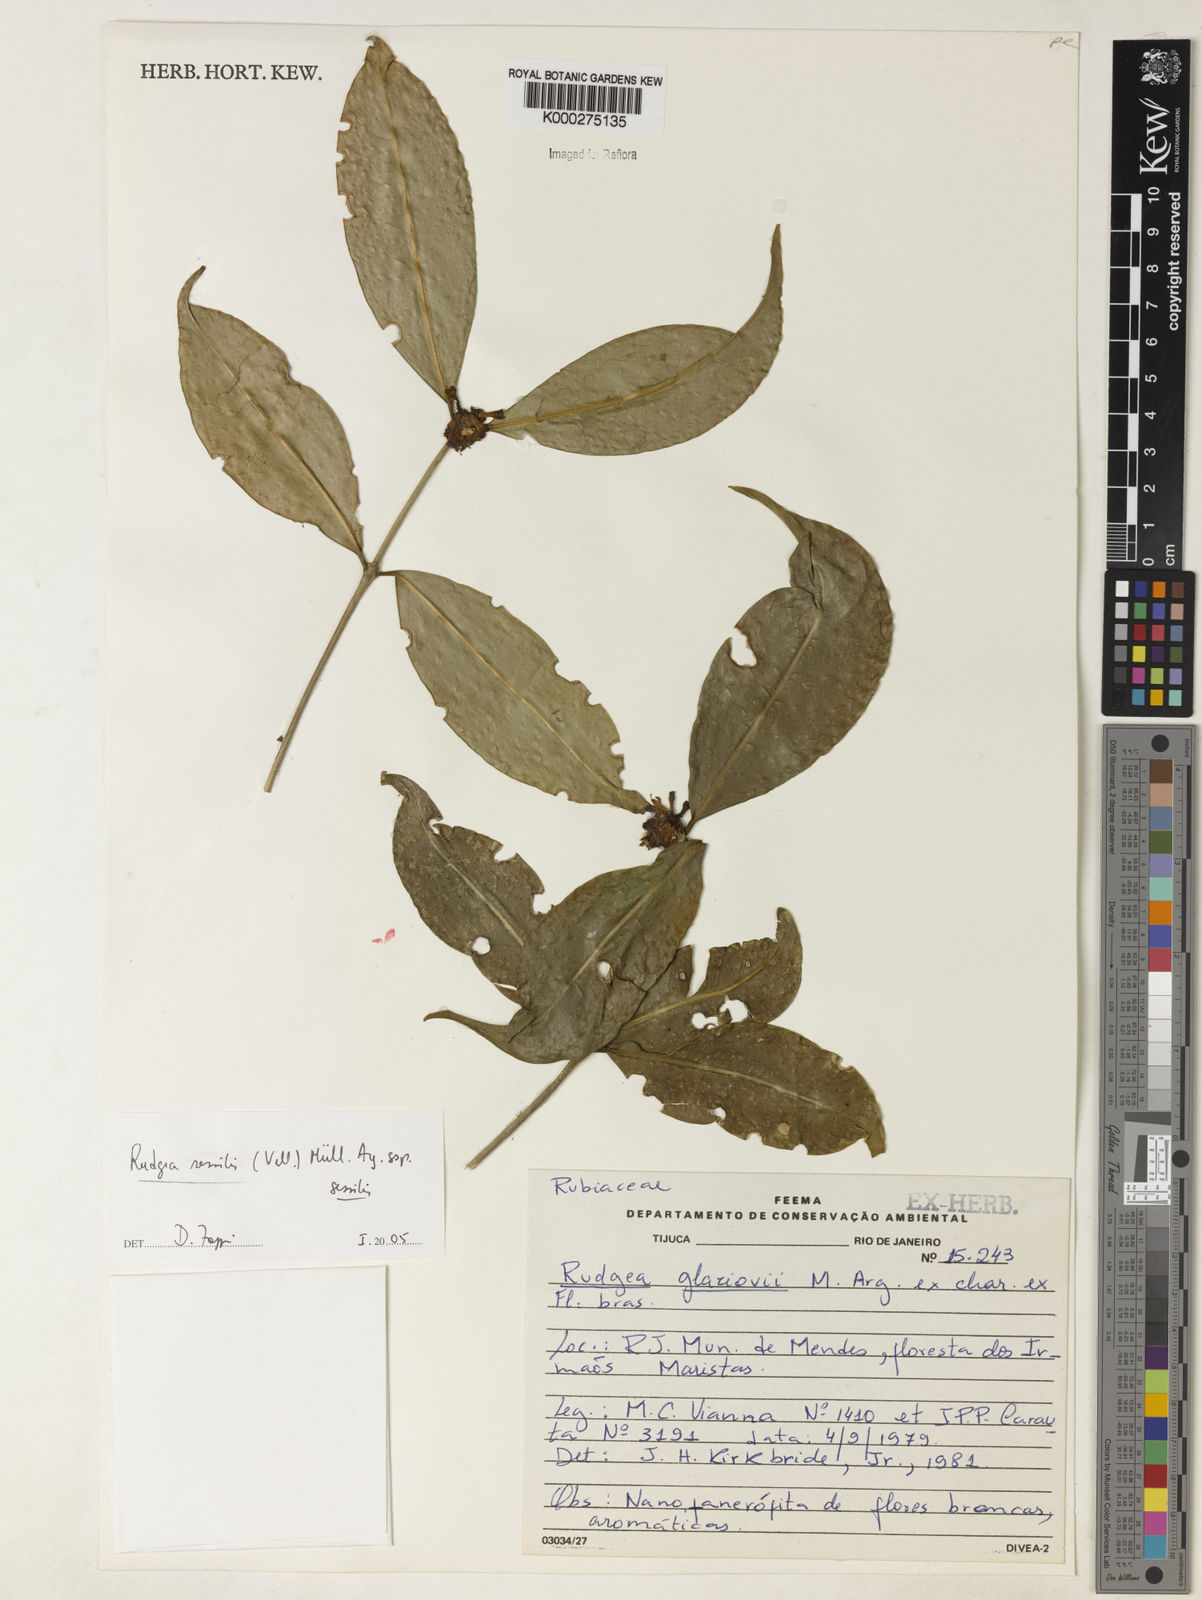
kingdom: Plantae
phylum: Tracheophyta
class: Magnoliopsida
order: Gentianales
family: Rubiaceae
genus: Rudgea
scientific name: Rudgea sessilis
